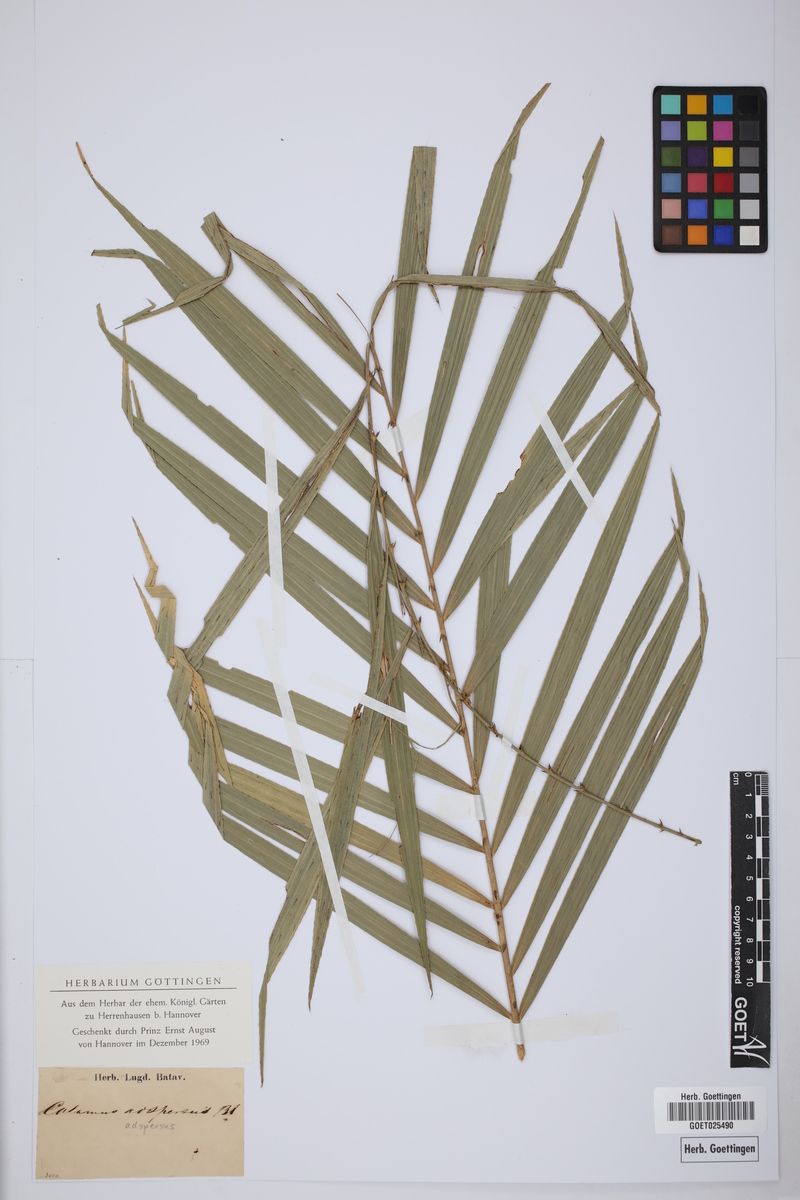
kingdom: Plantae
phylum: Tracheophyta
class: Liliopsida
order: Arecales
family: Arecaceae
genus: Calamus
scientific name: Calamus adspersus
